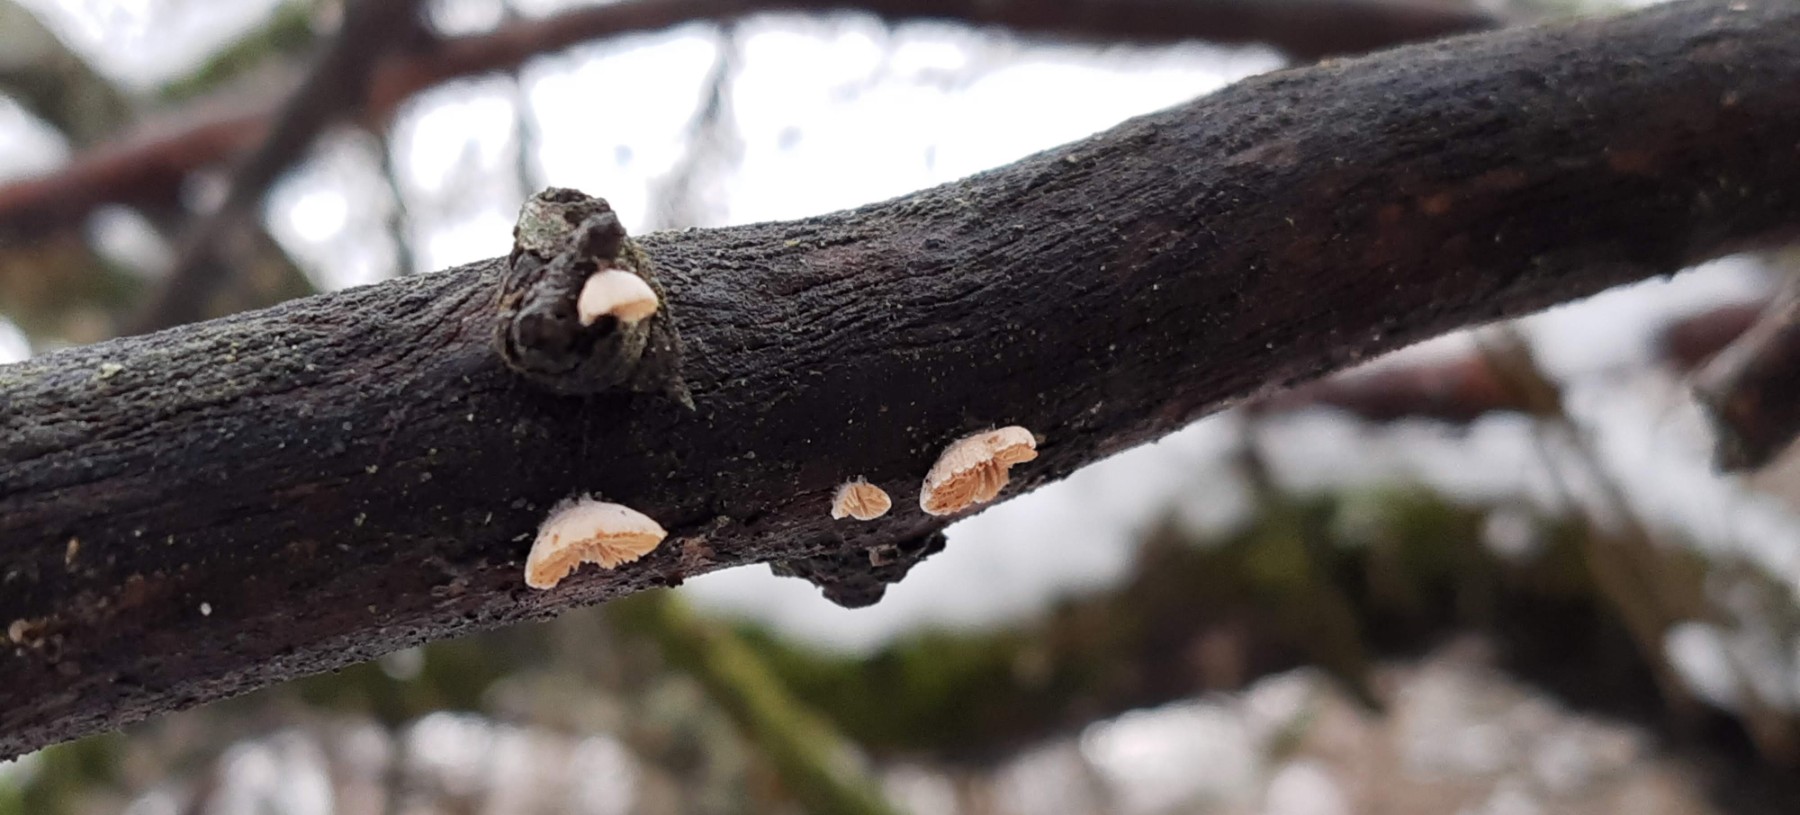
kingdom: Fungi
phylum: Basidiomycota
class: Agaricomycetes
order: Agaricales
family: Crepidotaceae
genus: Crepidotus
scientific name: Crepidotus cesatii
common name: almindelig muslingesvamp
